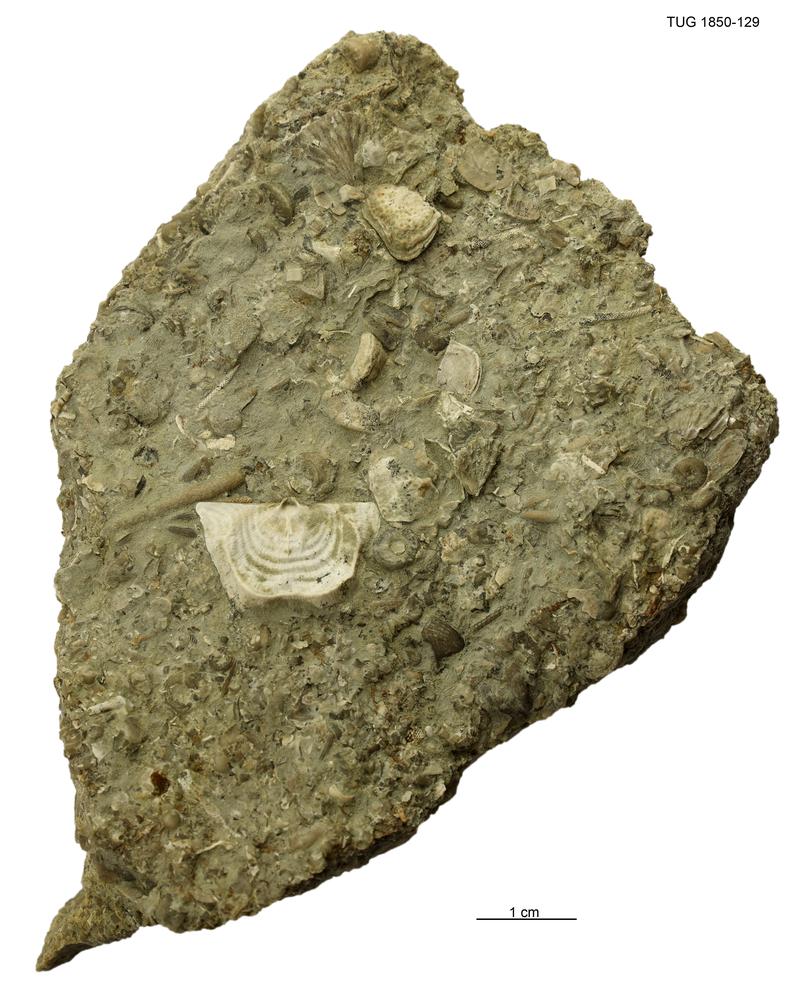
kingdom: Animalia
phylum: Brachiopoda
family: Strophomenidae
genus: Leptaena
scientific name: Leptaena
